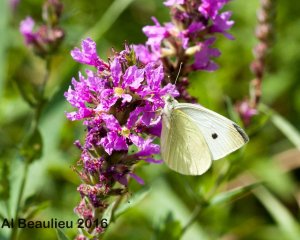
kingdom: Animalia
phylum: Arthropoda
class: Insecta
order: Lepidoptera
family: Pieridae
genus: Pieris
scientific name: Pieris rapae
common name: Cabbage White
